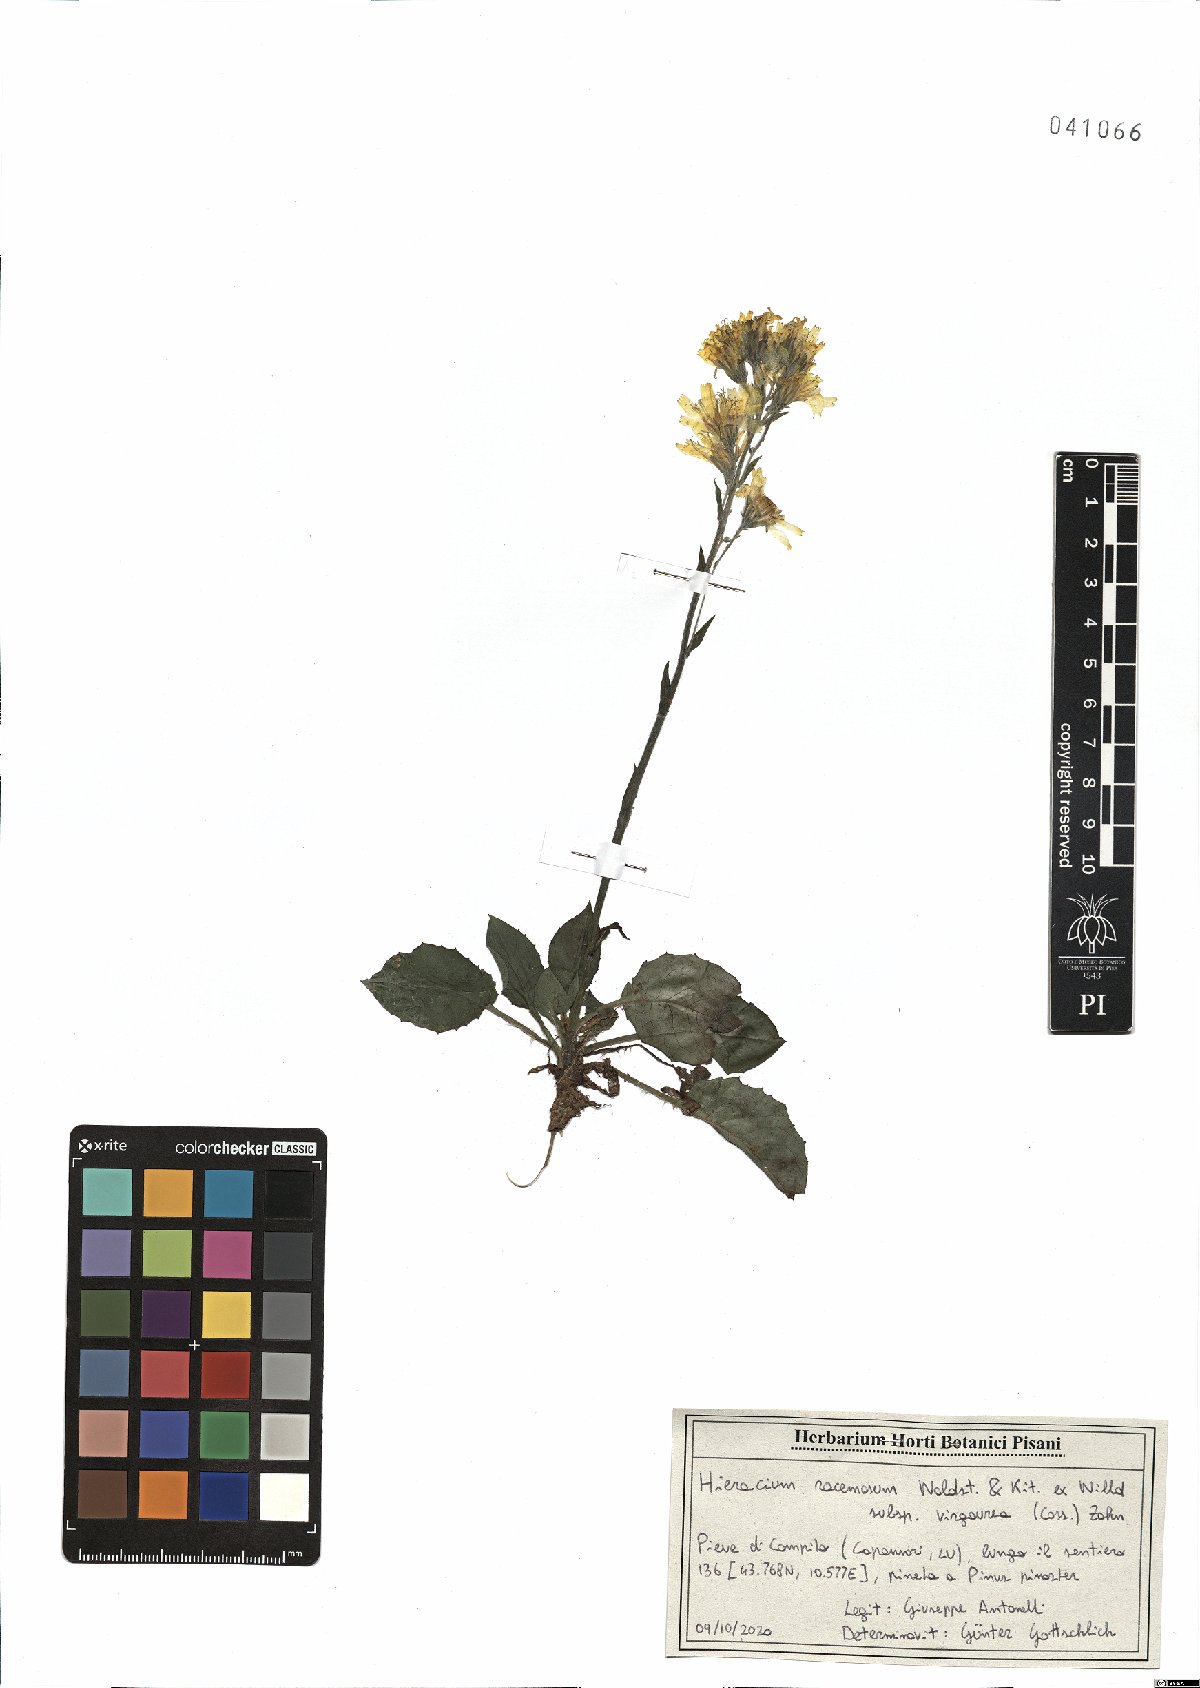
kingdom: Plantae
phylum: Tracheophyta
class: Magnoliopsida
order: Asterales
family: Asteraceae
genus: Hieracium
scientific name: Hieracium racemosum
